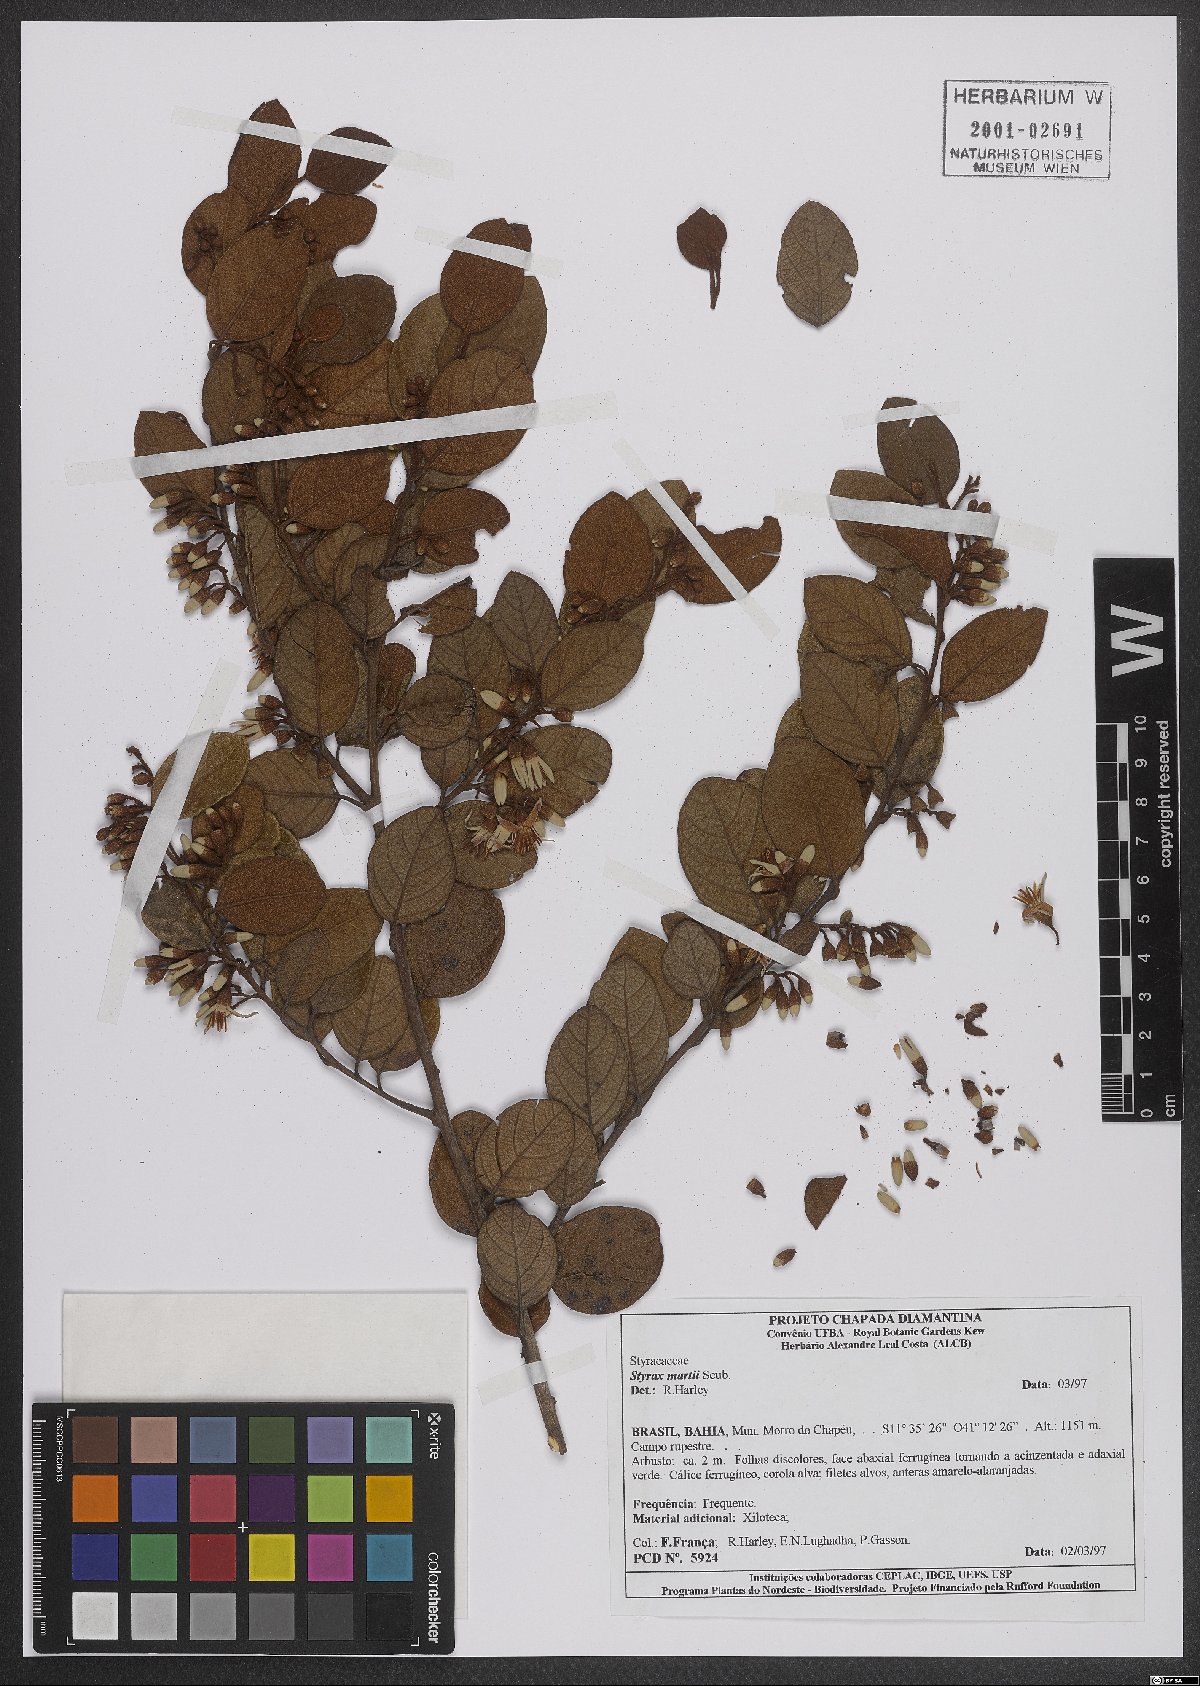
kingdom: Plantae
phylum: Tracheophyta
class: Magnoliopsida
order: Ericales
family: Styracaceae
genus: Styrax
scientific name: Styrax martii
